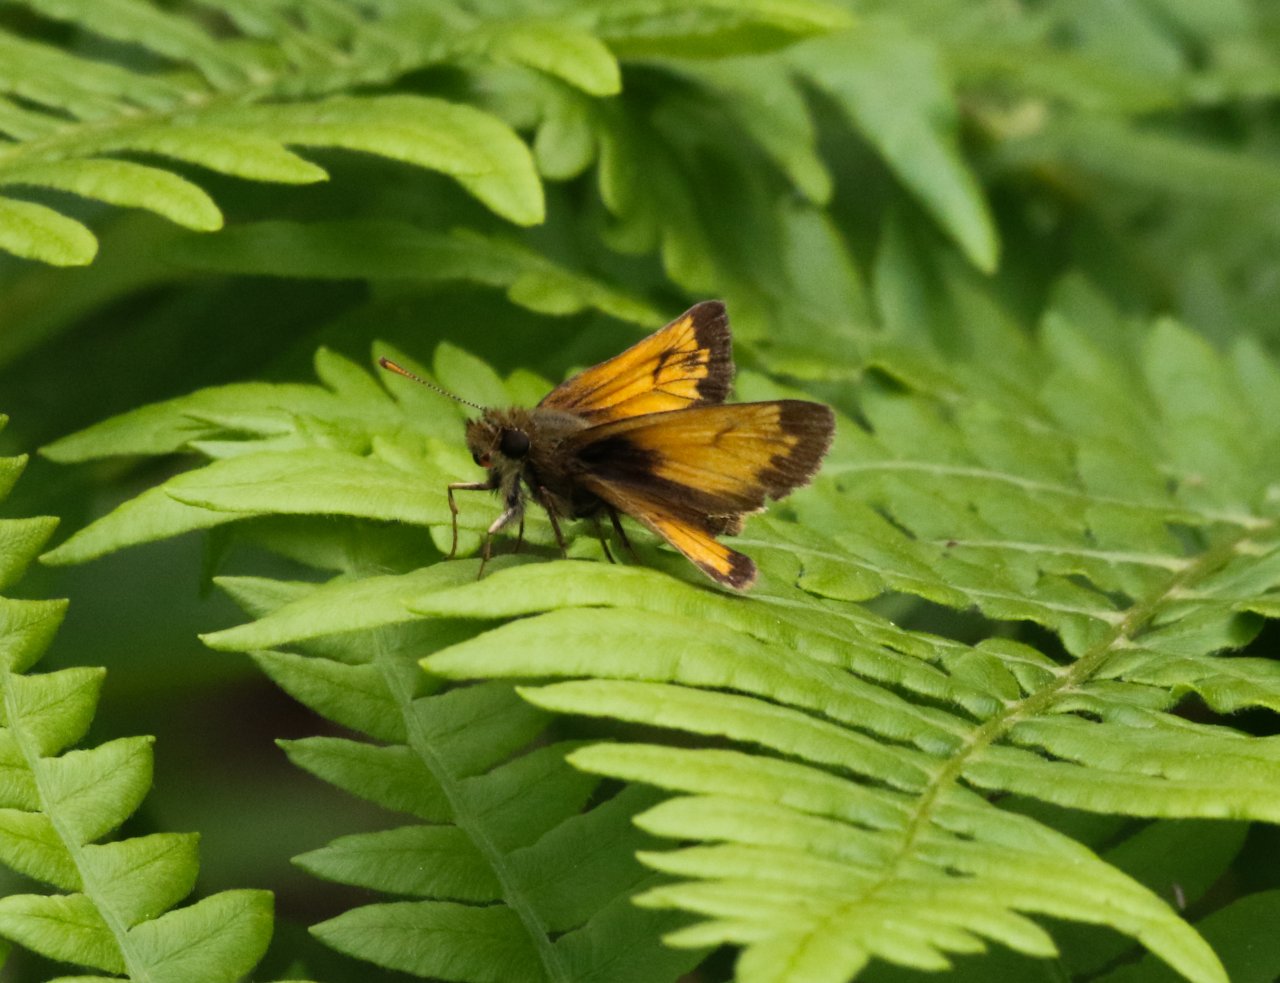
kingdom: Animalia
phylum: Arthropoda
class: Insecta
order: Lepidoptera
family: Hesperiidae
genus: Atrytone
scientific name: Atrytone delaware
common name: Delaware Skipper
